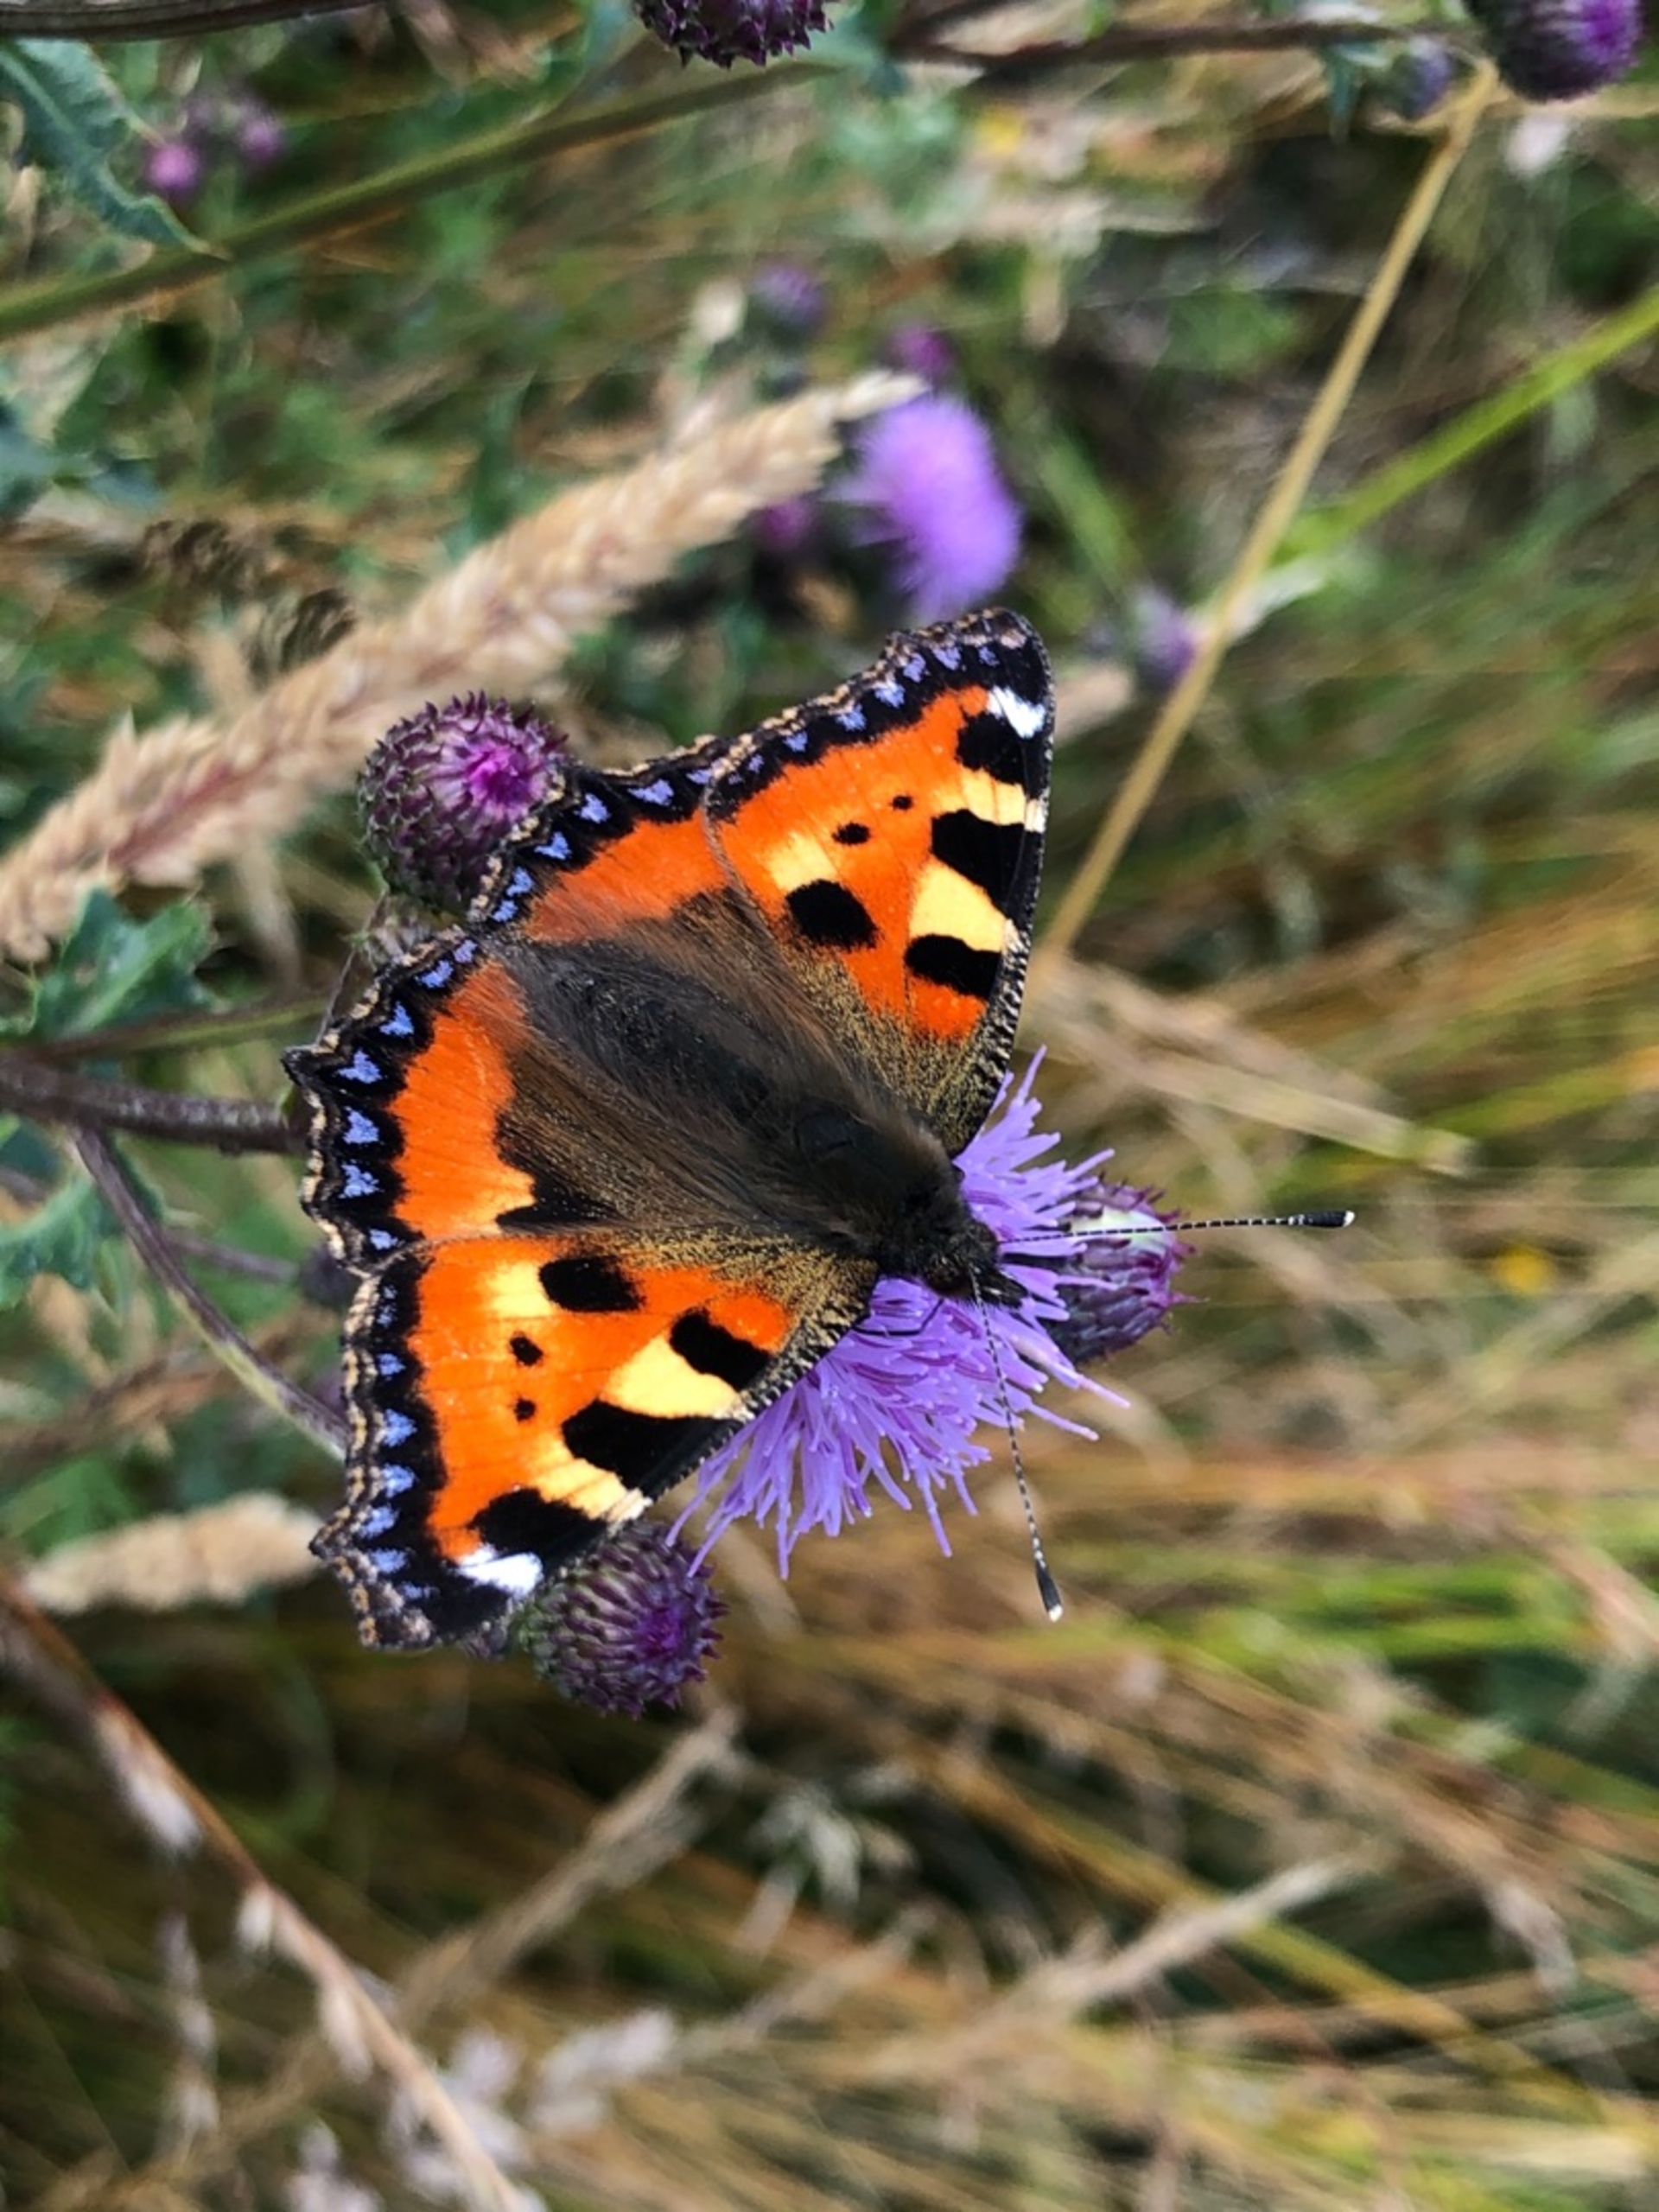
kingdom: Animalia
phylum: Arthropoda
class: Insecta
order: Lepidoptera
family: Nymphalidae
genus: Aglais
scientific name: Aglais urticae
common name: Nældens takvinge
